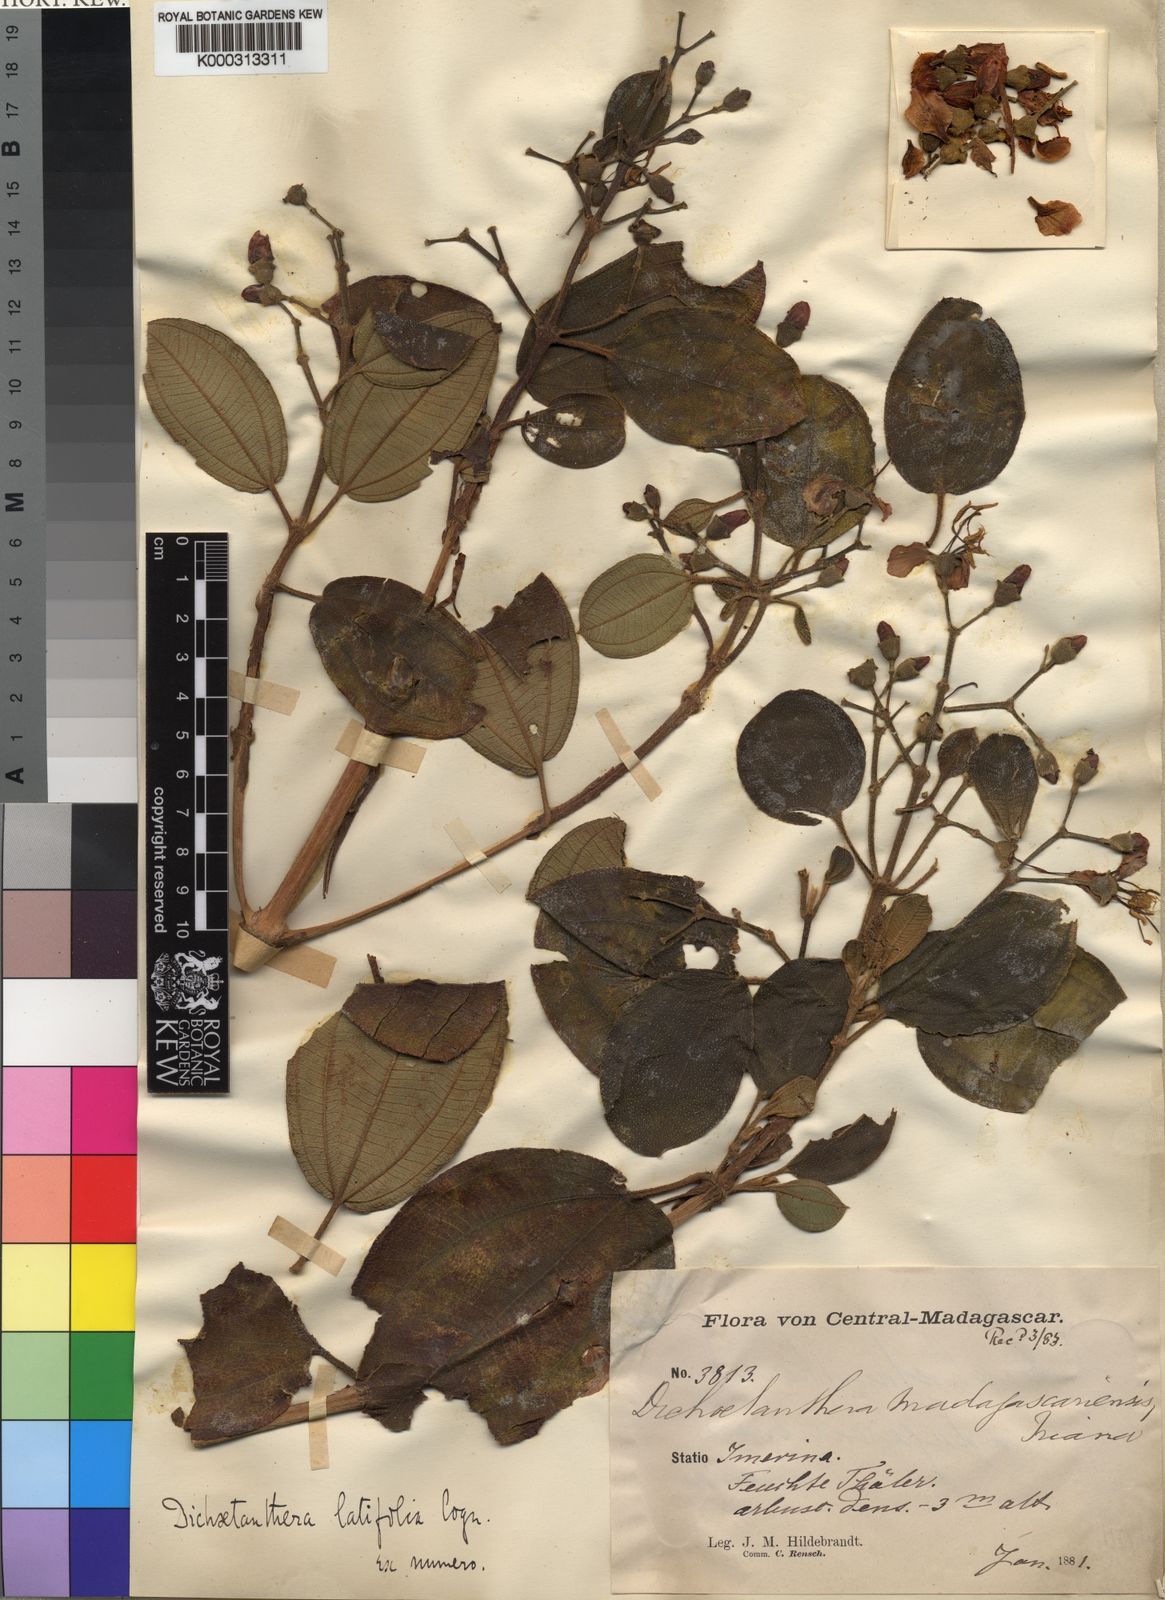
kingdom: Plantae
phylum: Tracheophyta
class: Magnoliopsida
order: Myrtales
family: Melastomataceae
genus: Dichaetanthera
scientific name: Dichaetanthera cordifolia
